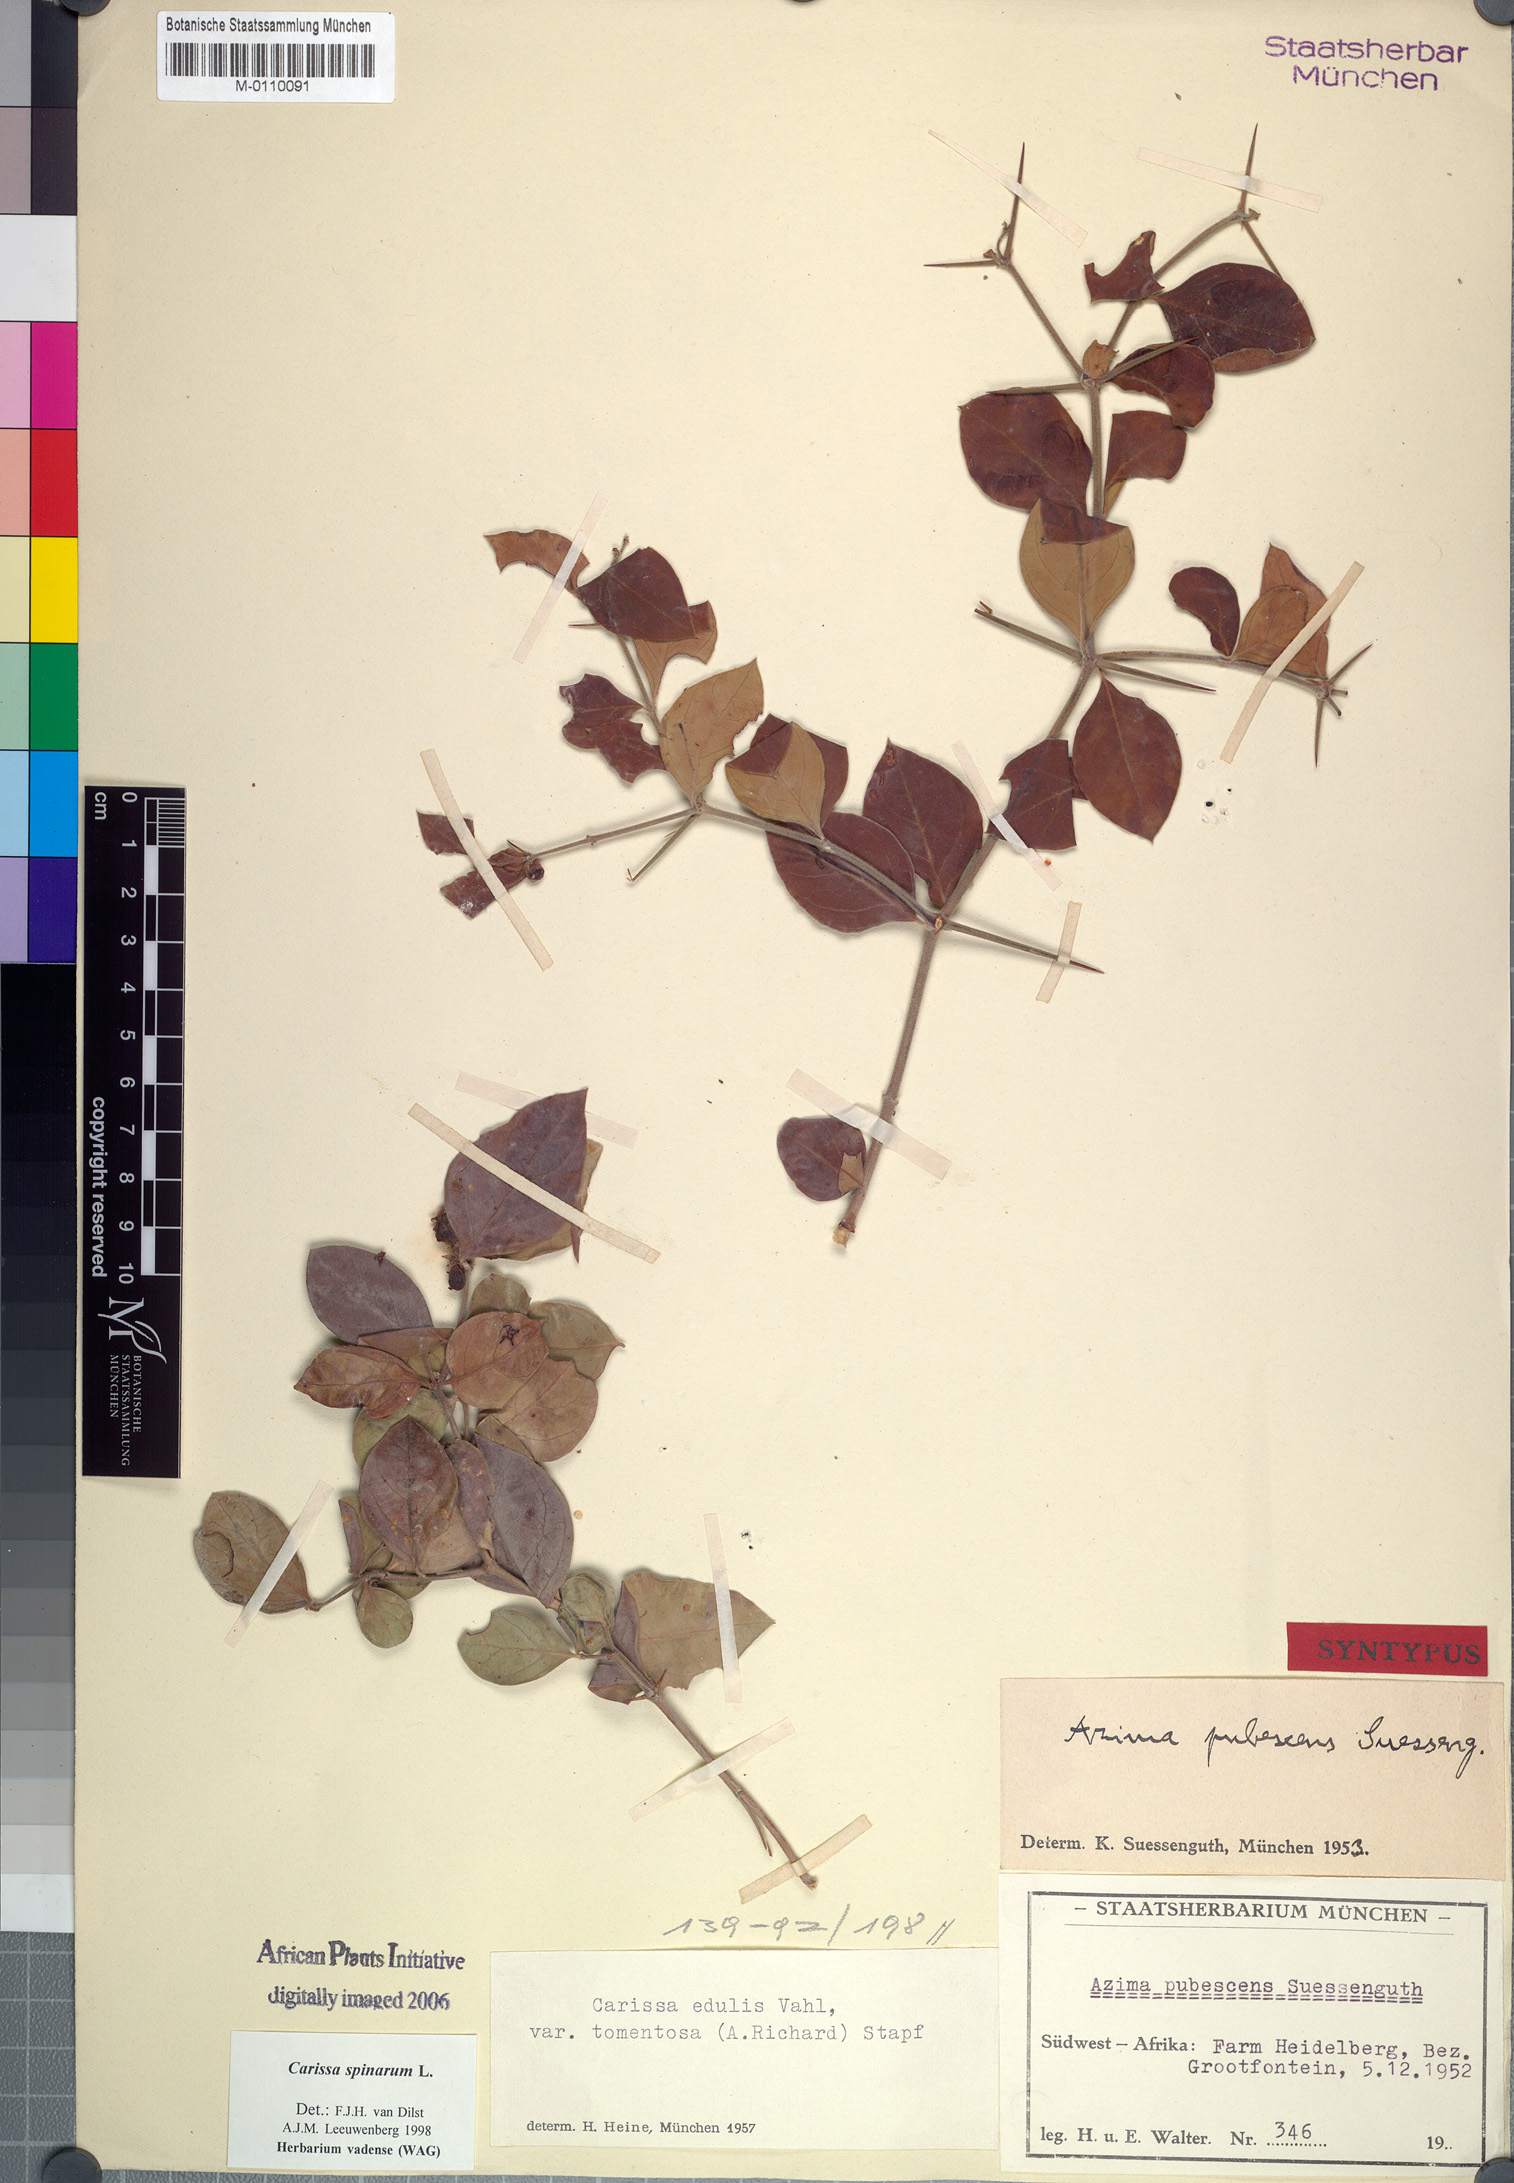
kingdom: Plantae
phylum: Tracheophyta
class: Magnoliopsida
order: Gentianales
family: Apocynaceae
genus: Carissa
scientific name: Carissa spinarum
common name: Egyptian carissa
